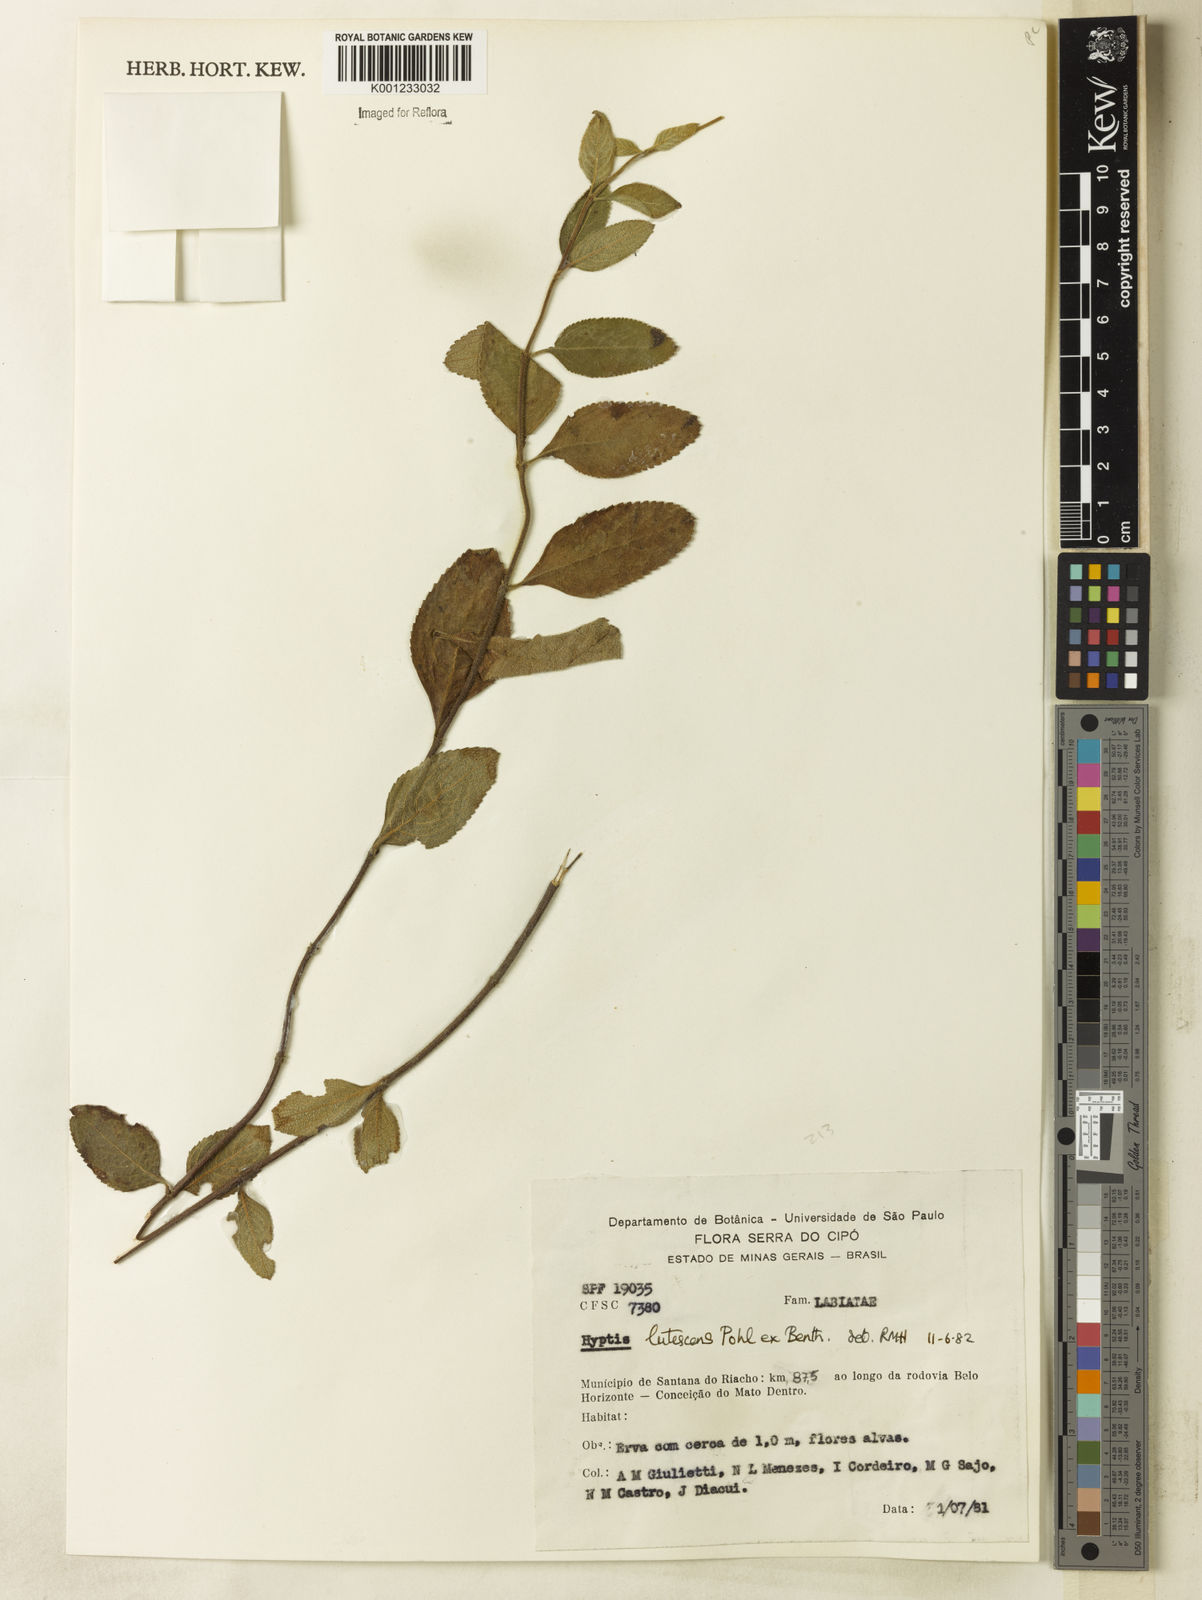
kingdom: Plantae
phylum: Tracheophyta
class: Magnoliopsida
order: Lamiales
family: Lamiaceae
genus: Hyptis
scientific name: Hyptis lutescens
